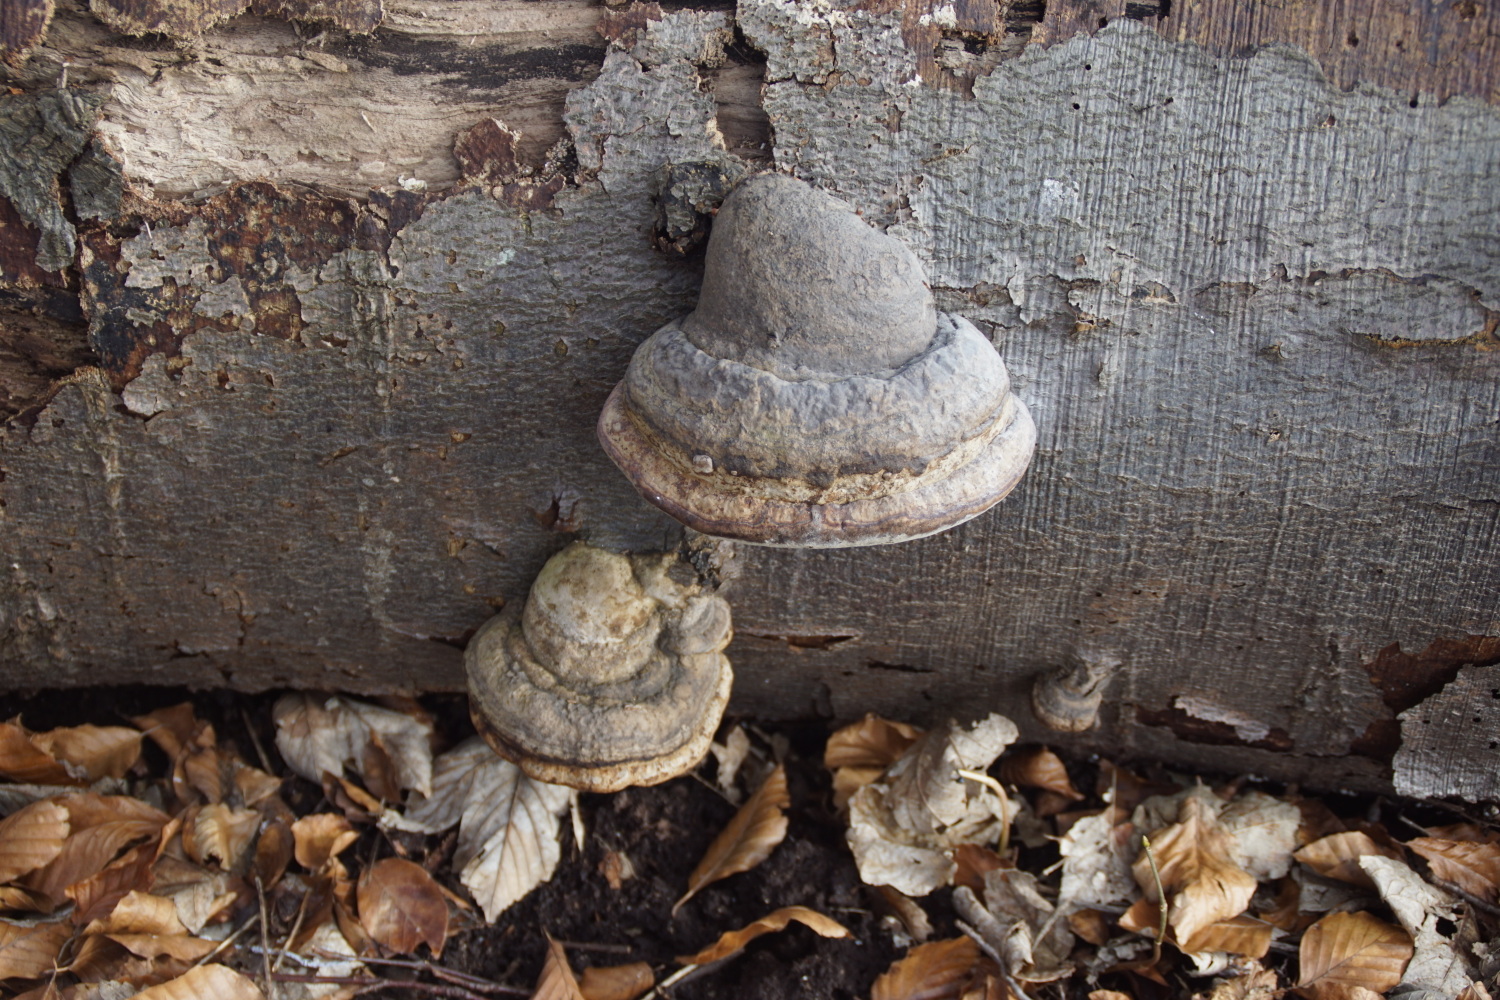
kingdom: Fungi
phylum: Basidiomycota
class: Agaricomycetes
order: Polyporales
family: Polyporaceae
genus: Fomes
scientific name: Fomes fomentarius
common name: tøndersvamp
